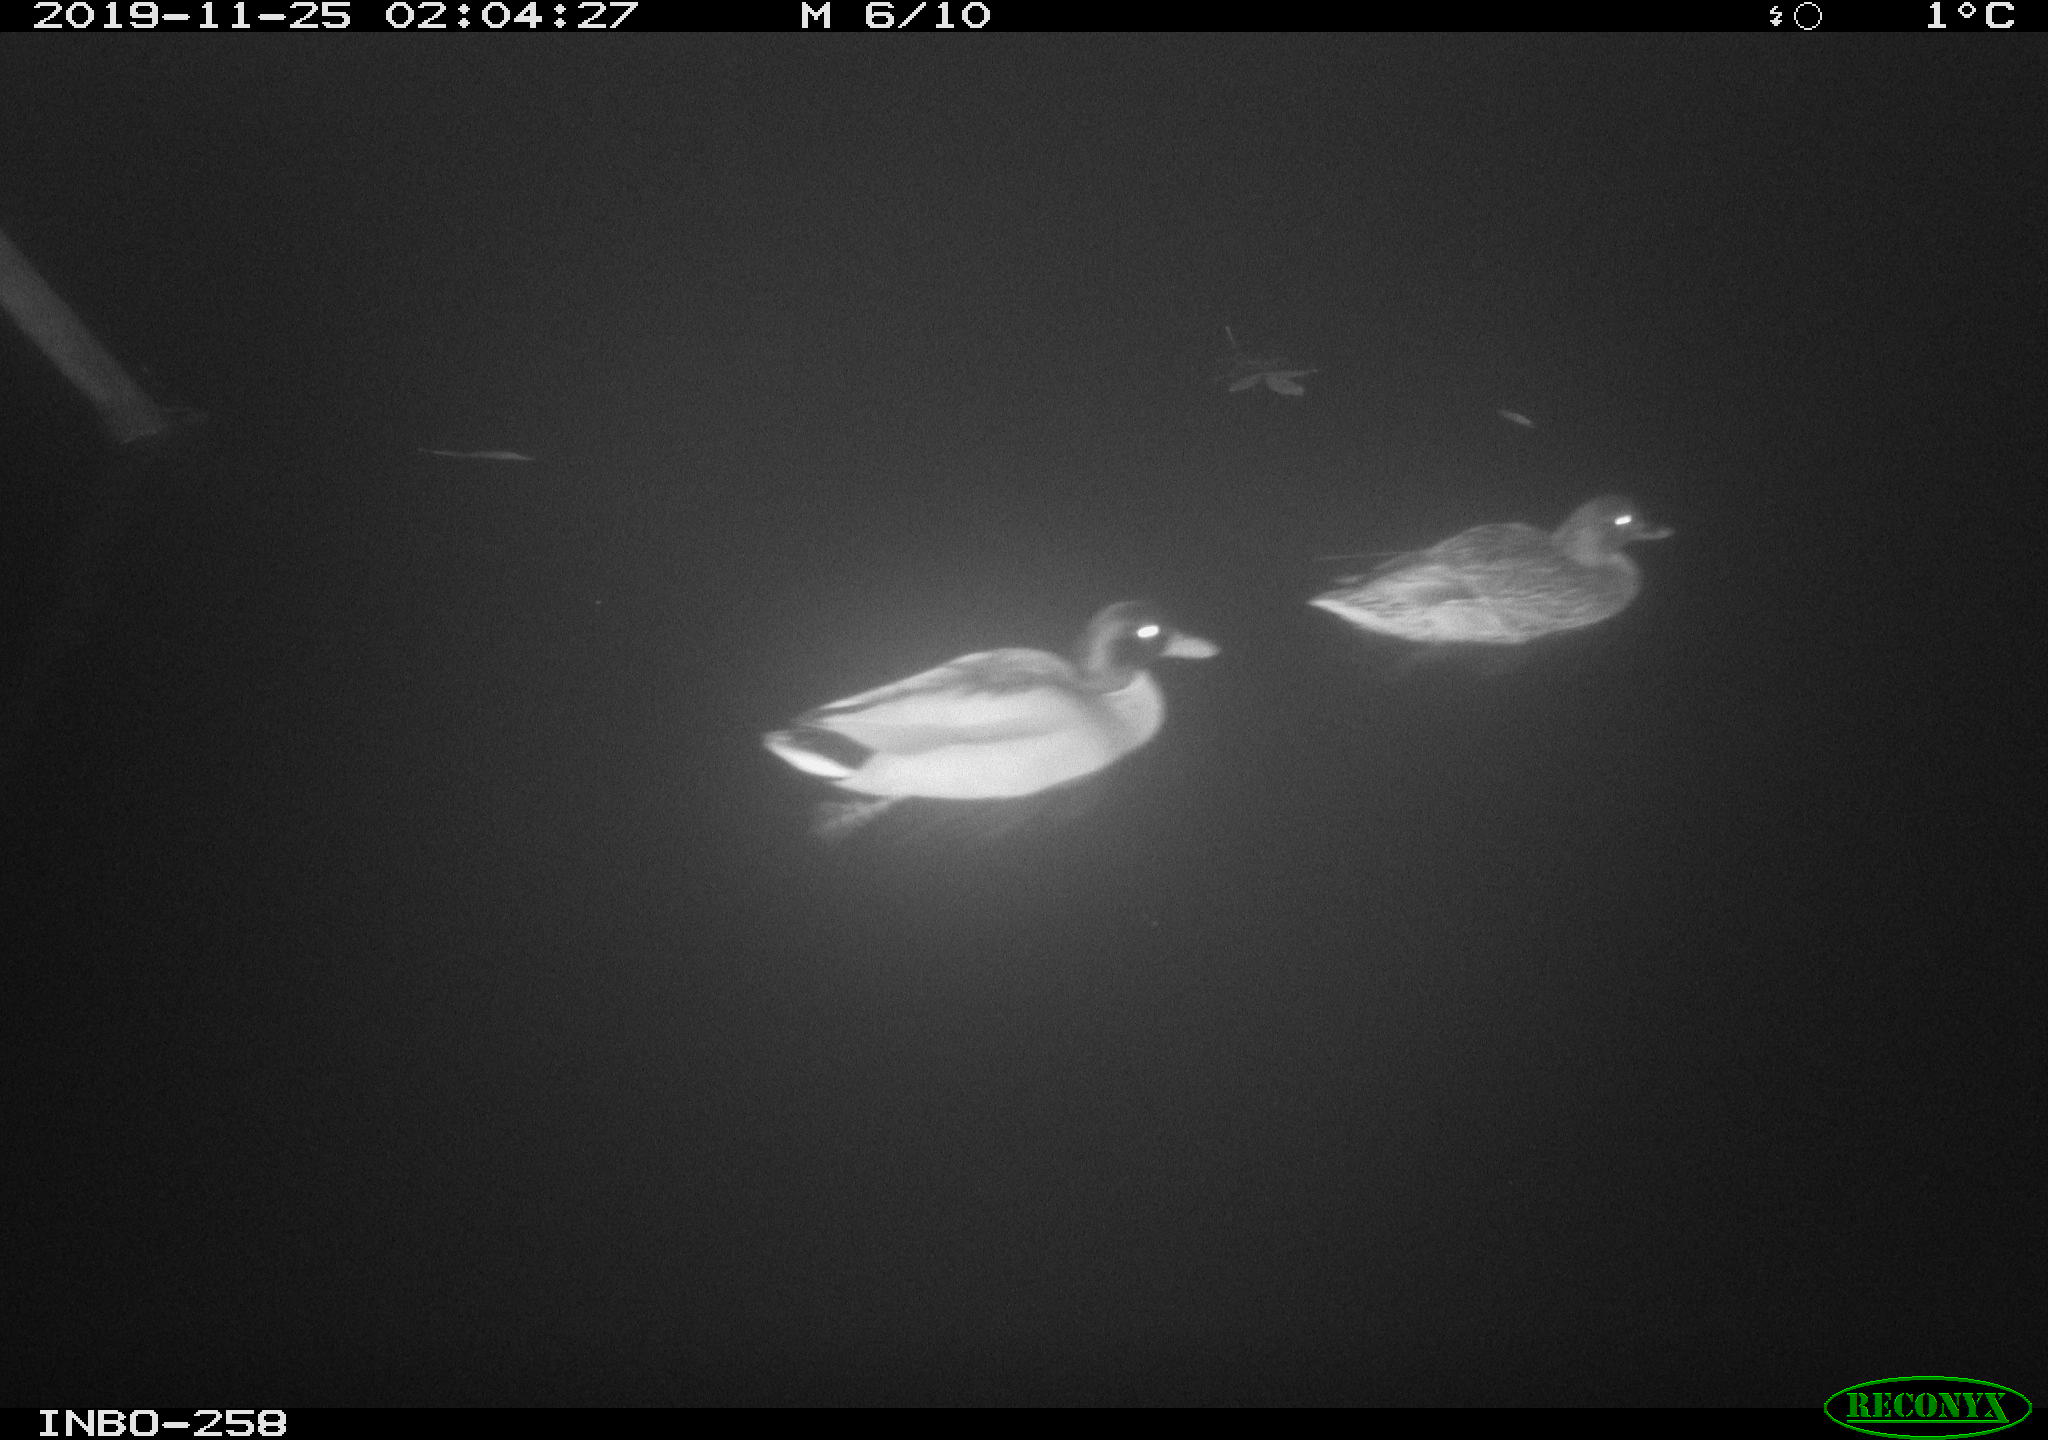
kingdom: Animalia
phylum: Chordata
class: Aves
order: Anseriformes
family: Anatidae
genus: Anas
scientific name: Anas platyrhynchos
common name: Mallard
